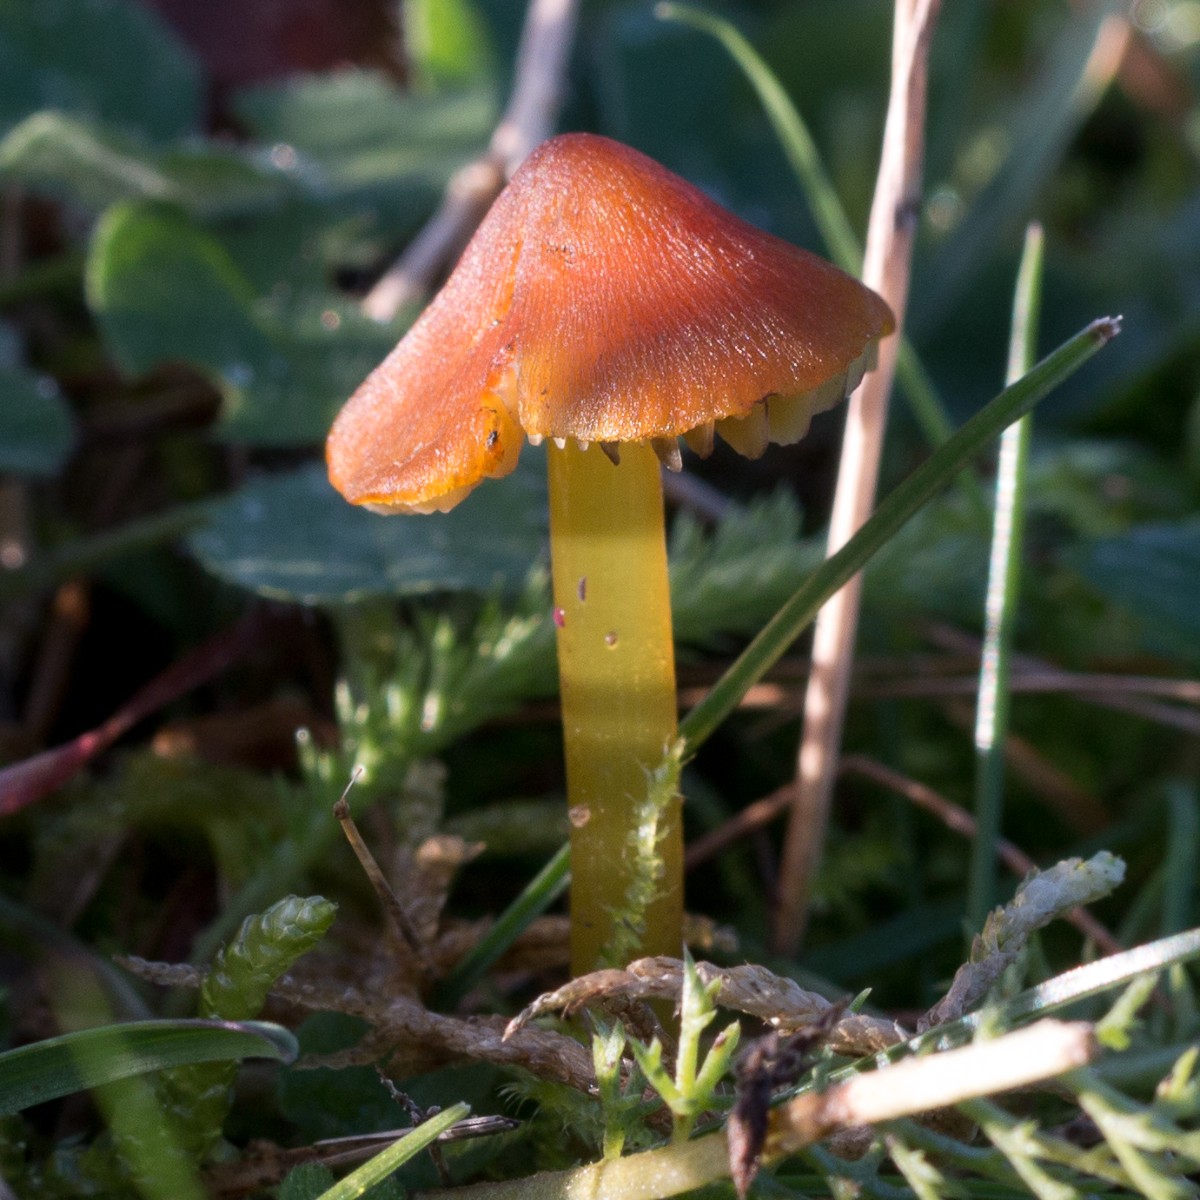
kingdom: Fungi
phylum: Basidiomycota
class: Agaricomycetes
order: Agaricales
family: Hygrophoraceae
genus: Hygrocybe
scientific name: Hygrocybe conica
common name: kegle-vokshat
